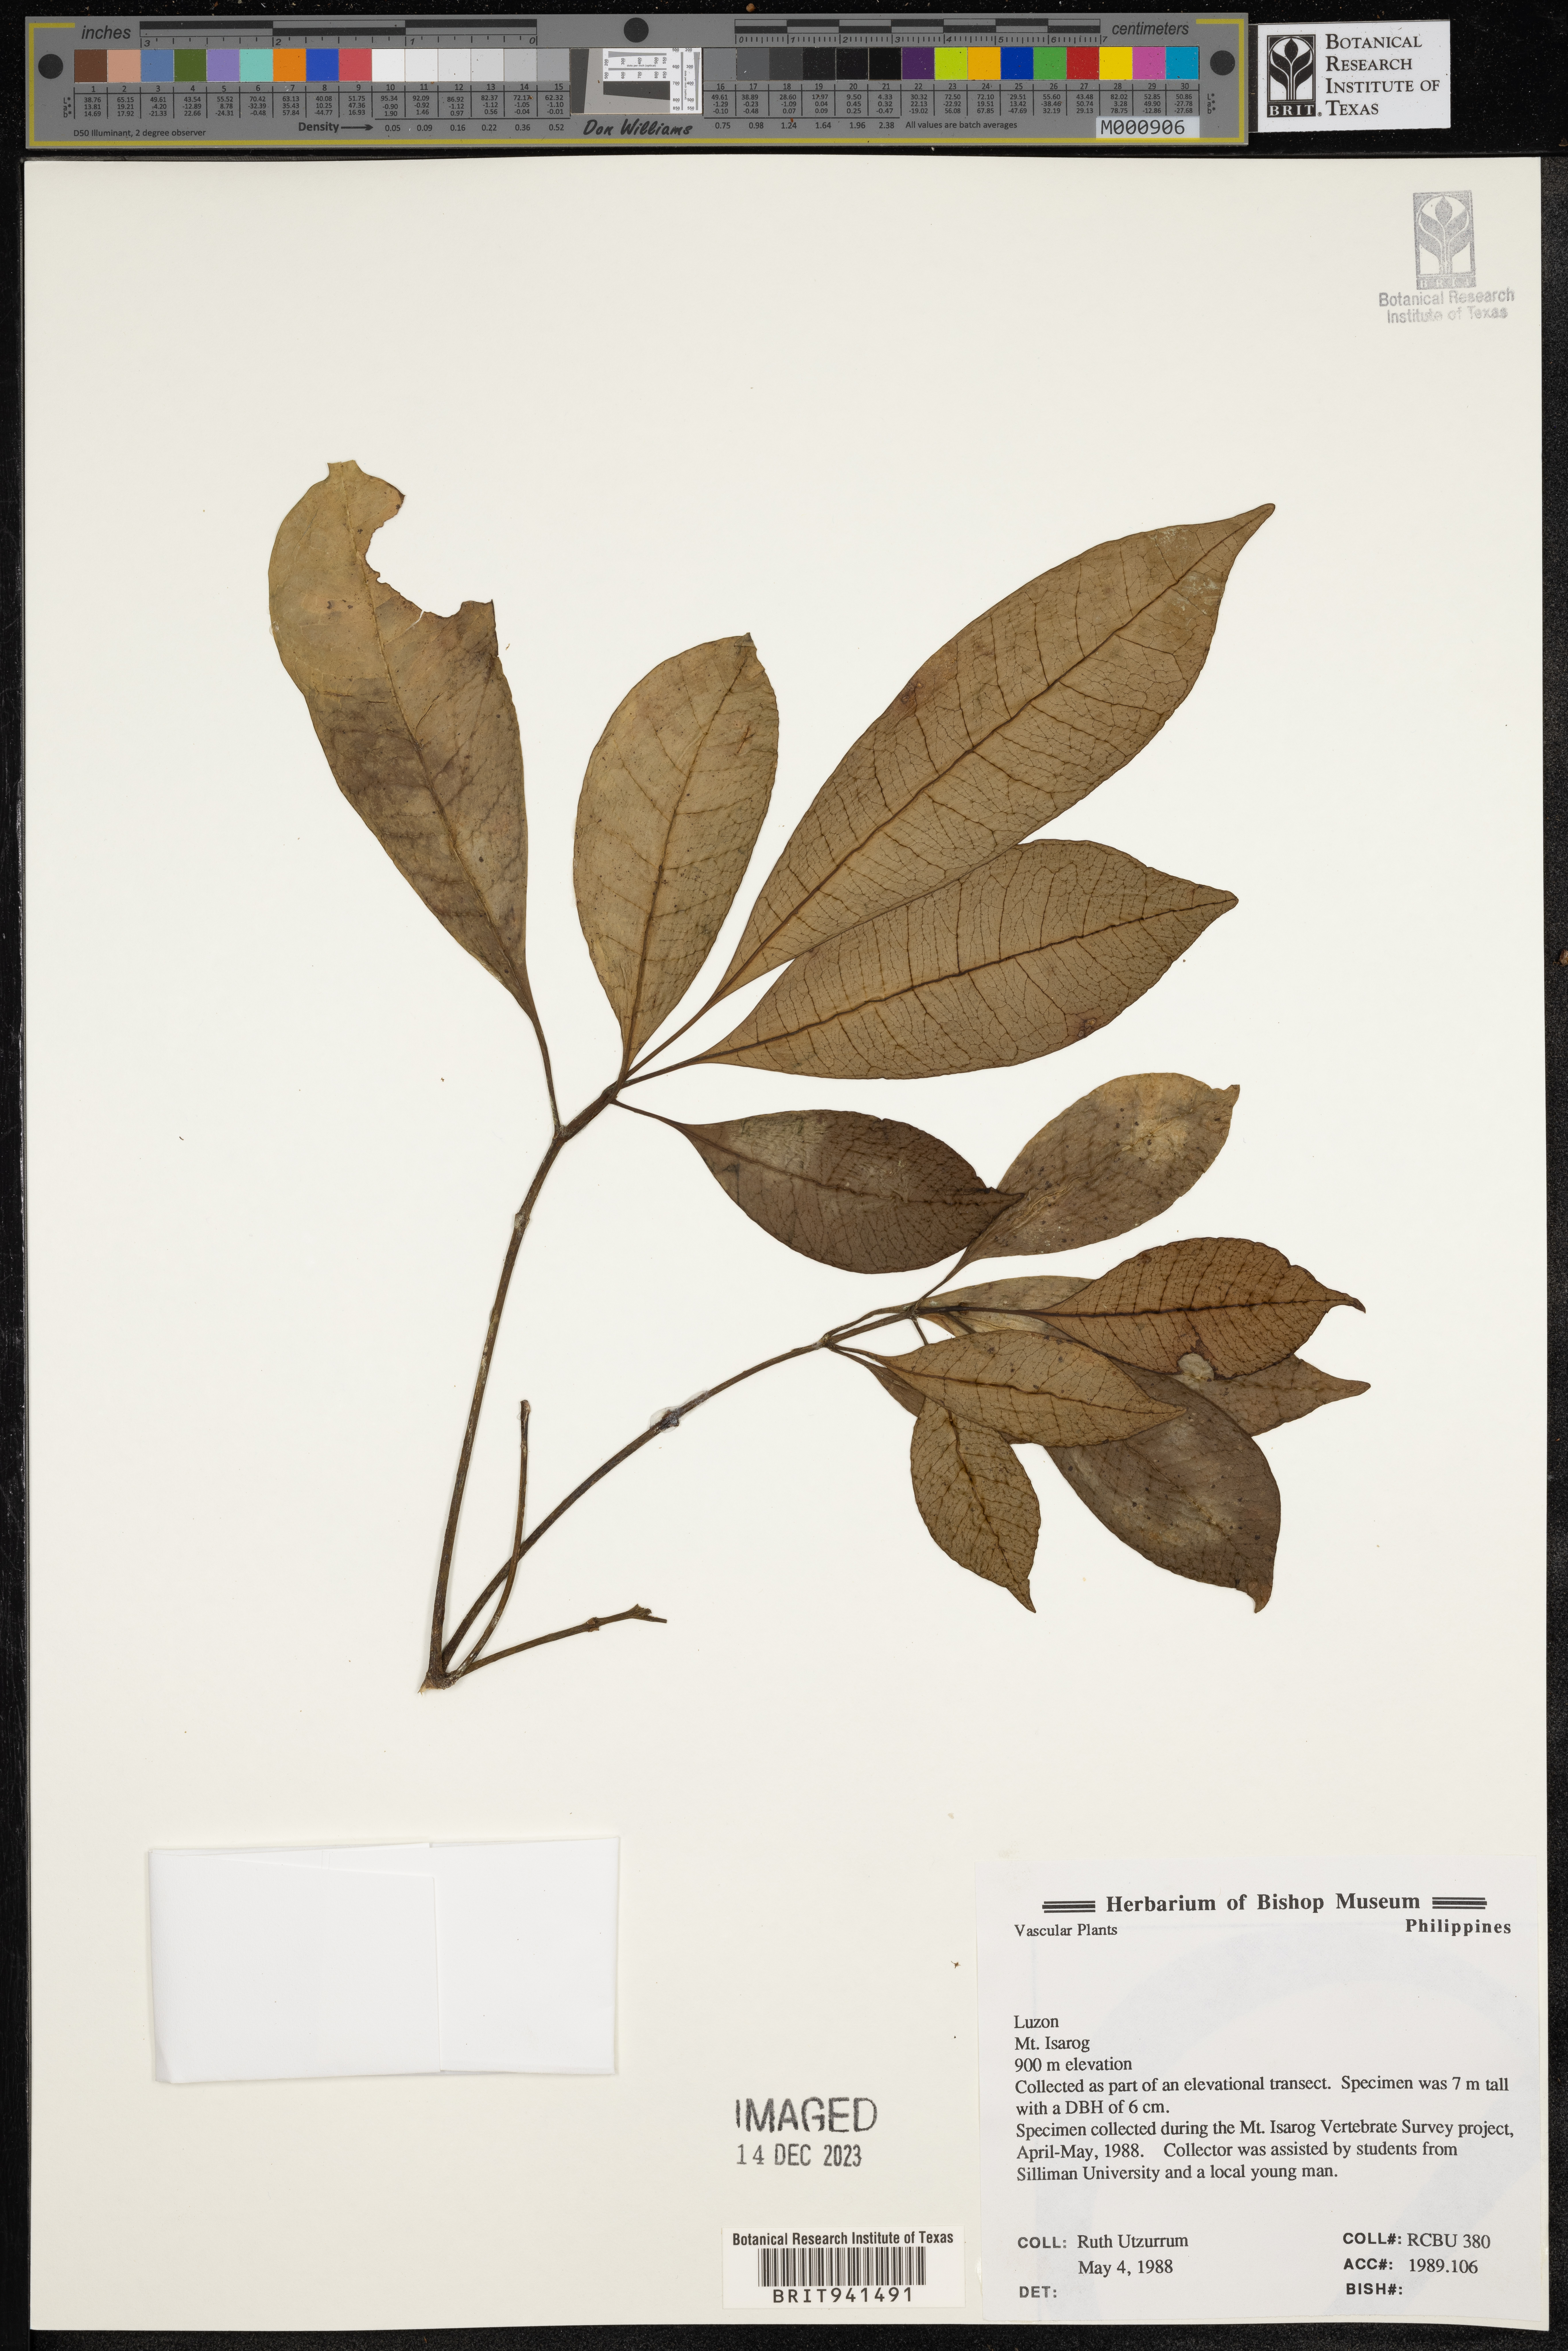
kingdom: Plantae
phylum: Tracheophyta
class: Magnoliopsida
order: Gentianales
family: Rubiaceae
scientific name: Rubiaceae
